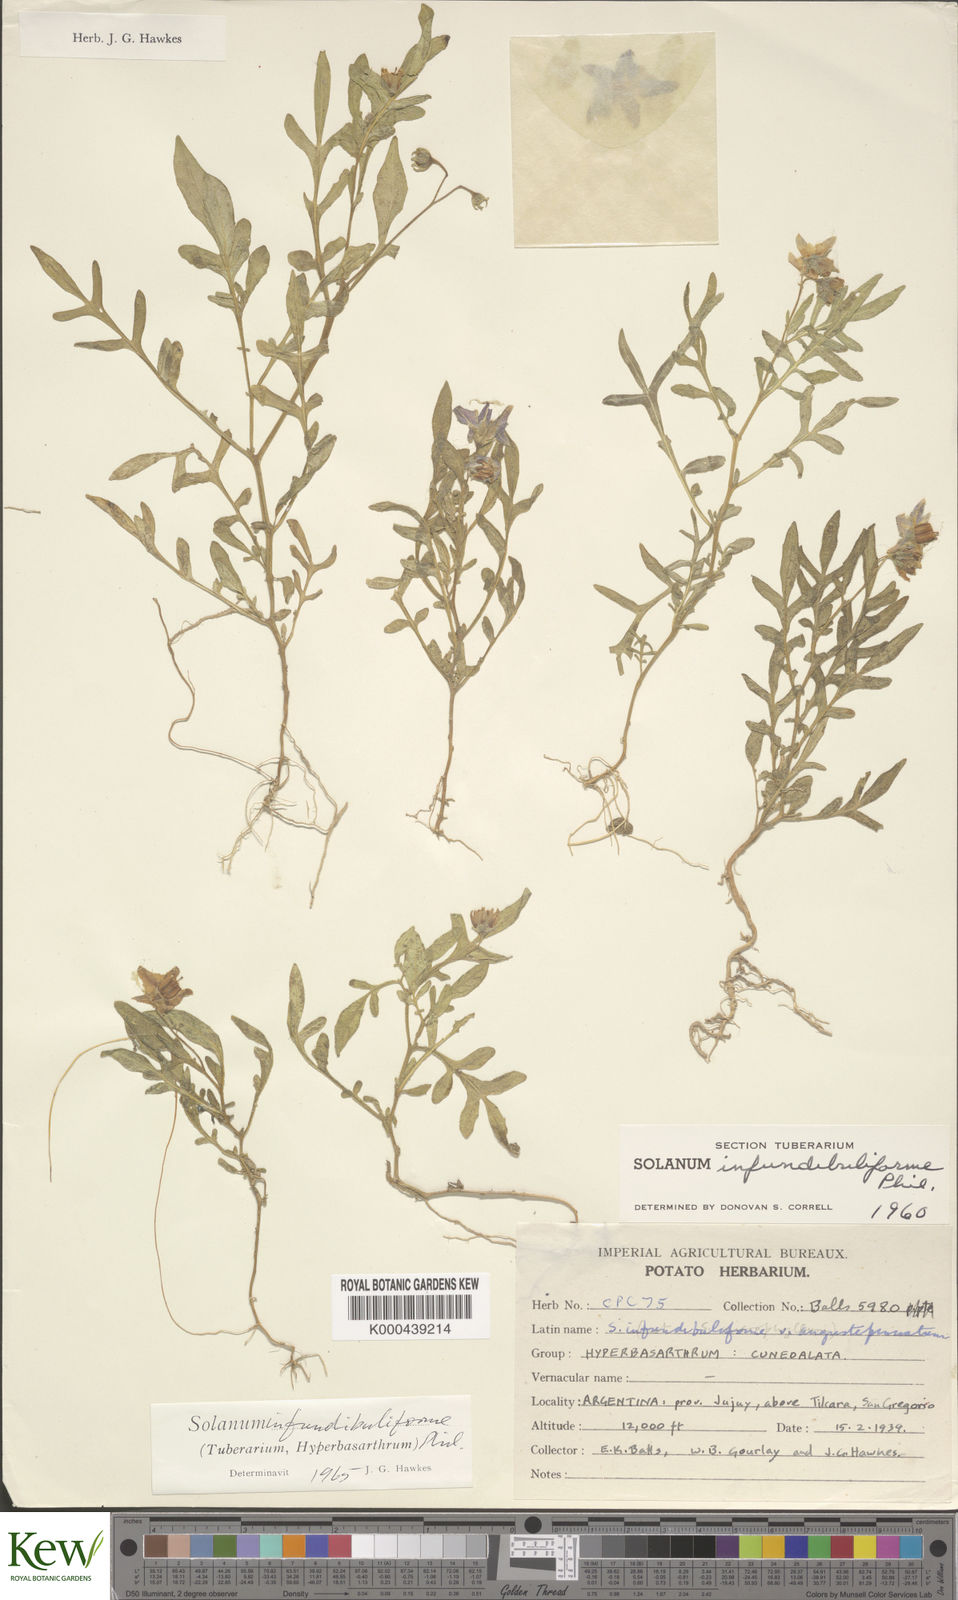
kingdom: Plantae
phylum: Tracheophyta
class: Magnoliopsida
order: Solanales
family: Solanaceae
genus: Solanum
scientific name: Solanum infundibuliforme
